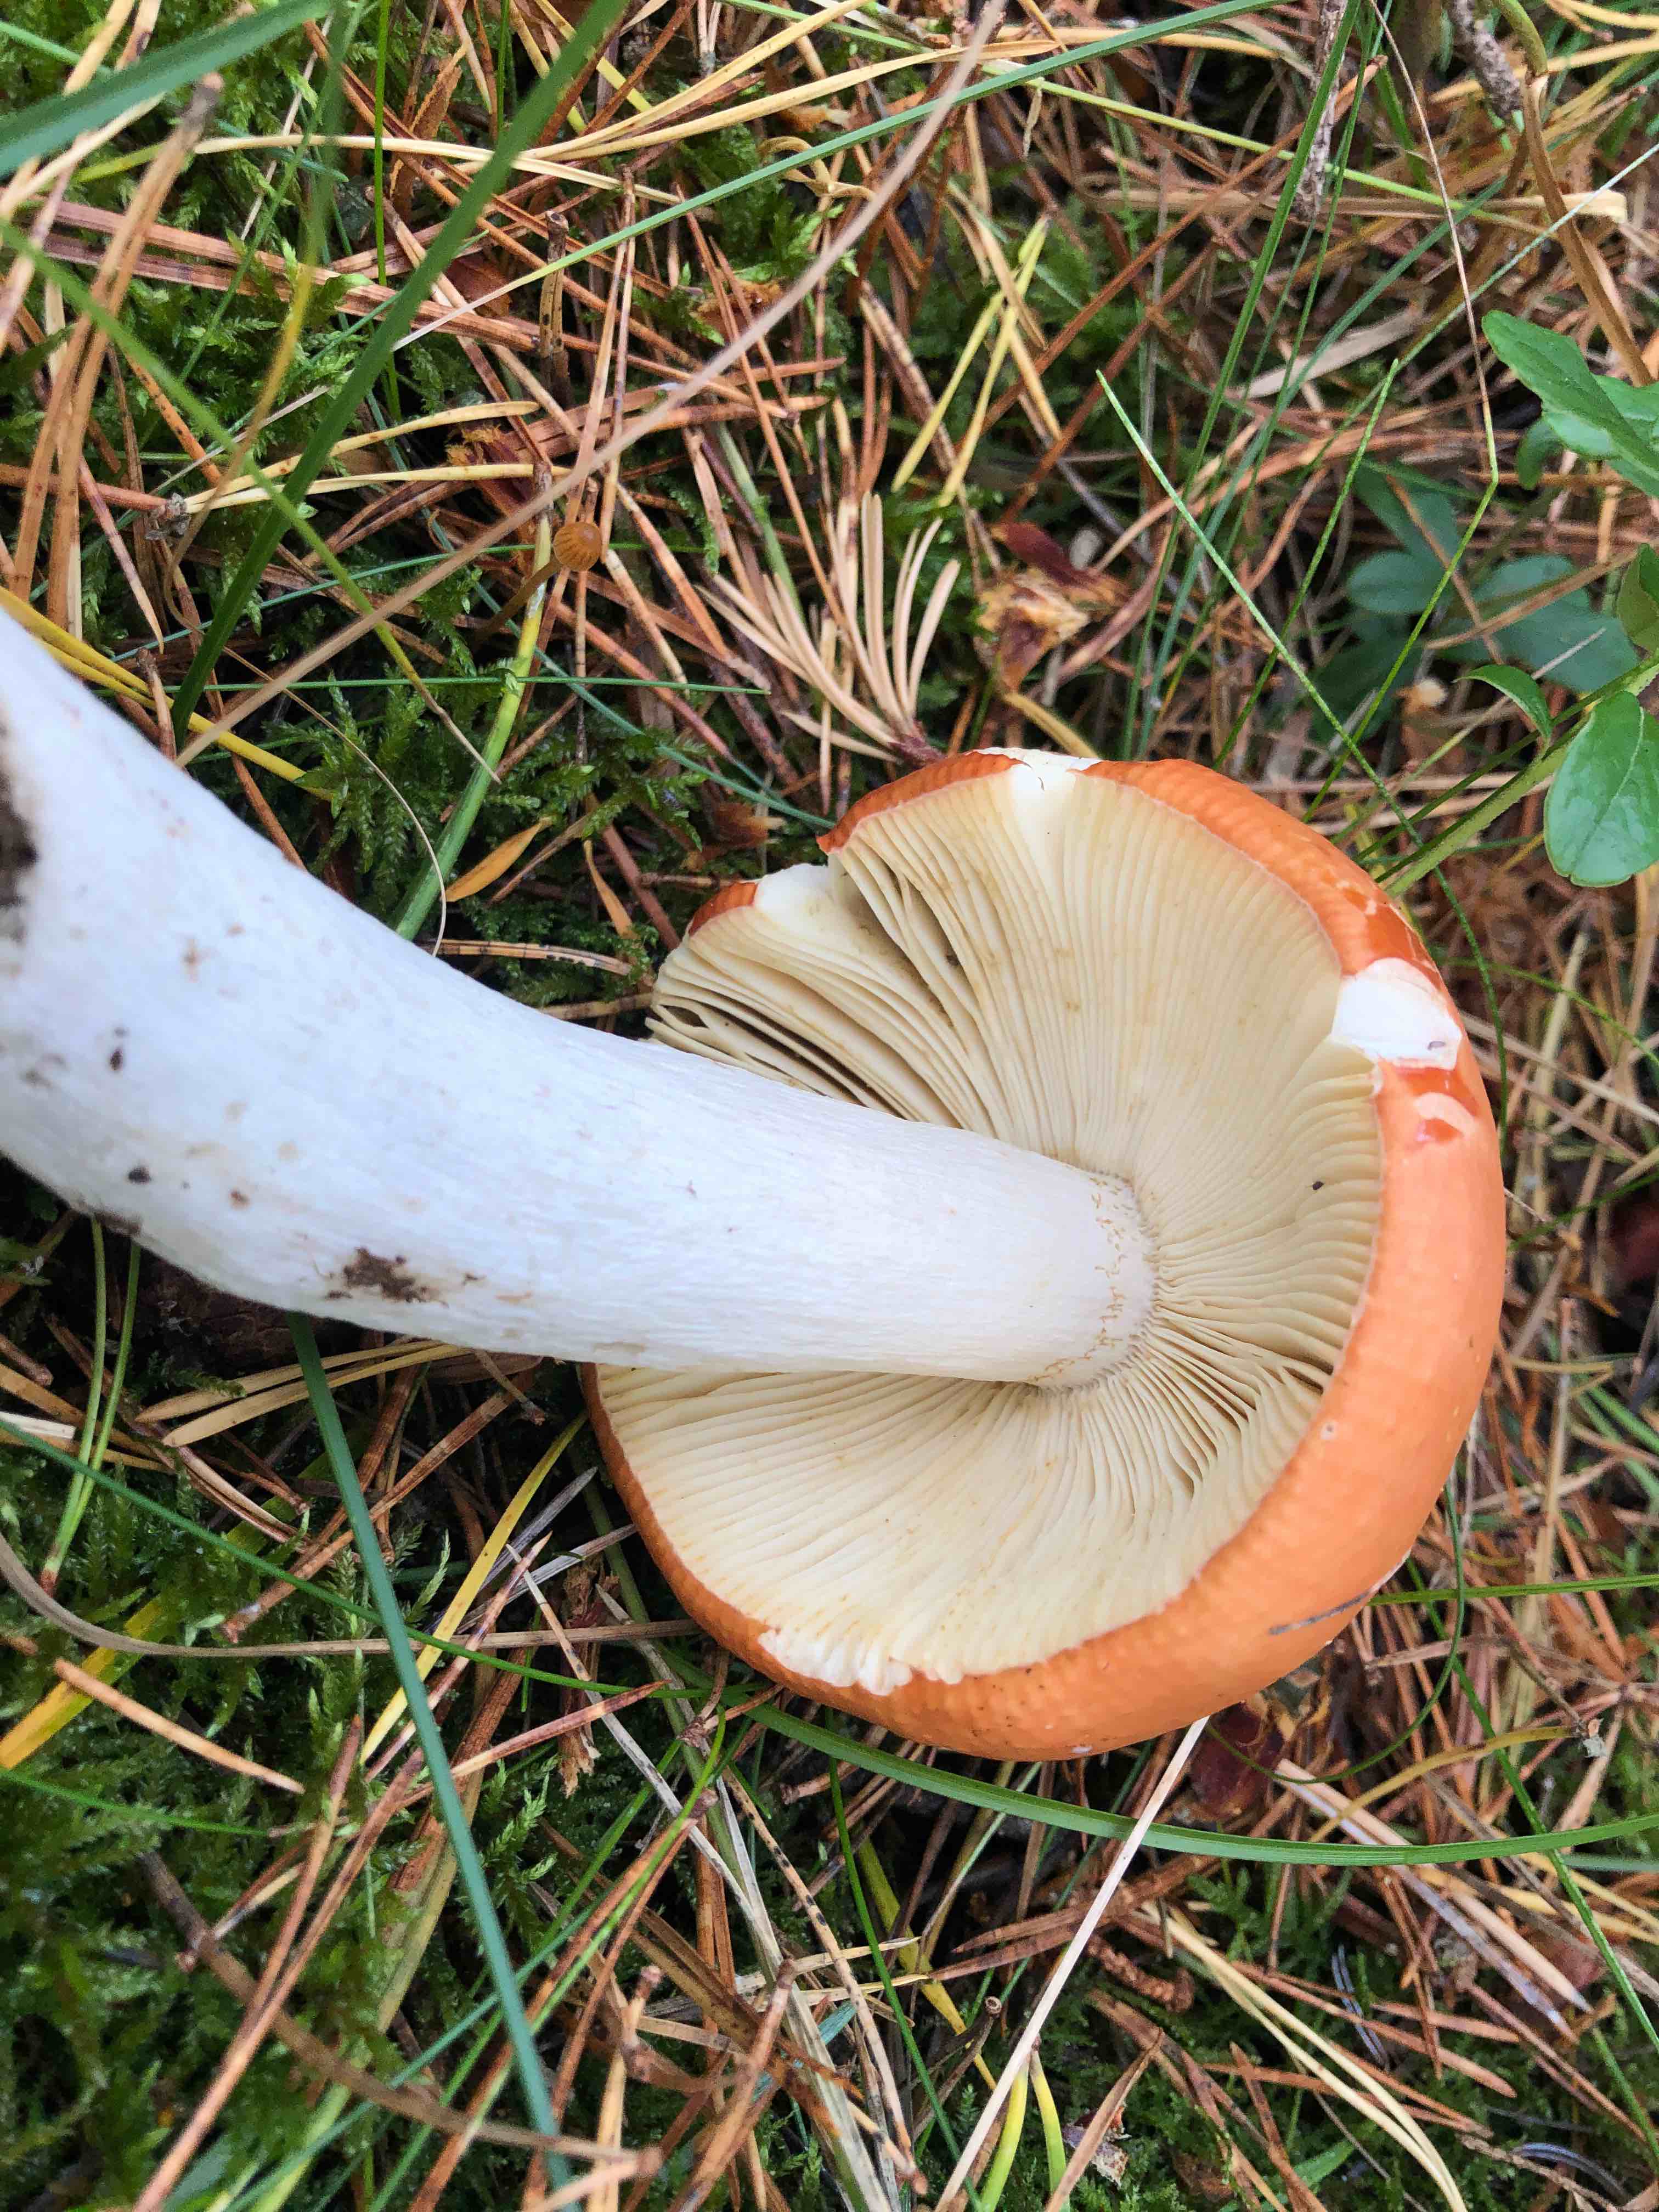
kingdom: Fungi
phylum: Basidiomycota
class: Agaricomycetes
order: Russulales
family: Russulaceae
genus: Russula
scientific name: Russula decolorans
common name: afblegende skørhat
